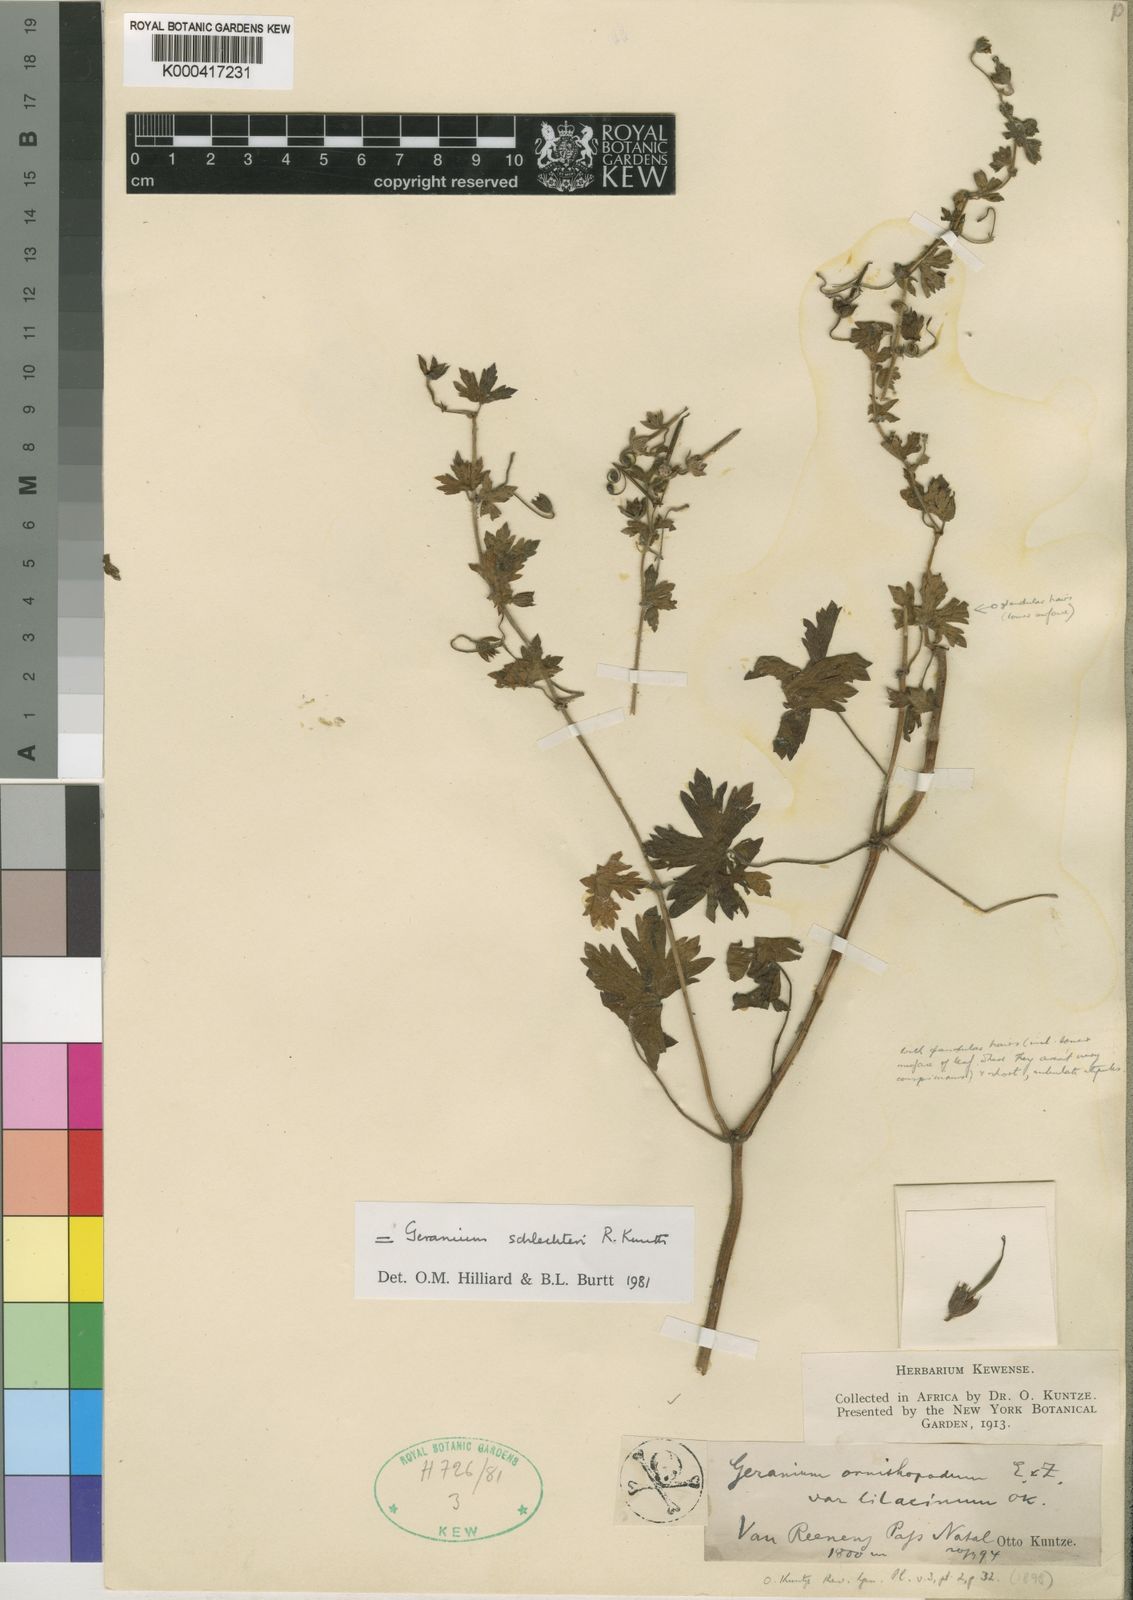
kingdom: Plantae
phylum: Tracheophyta
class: Magnoliopsida
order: Geraniales
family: Geraniaceae
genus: Geranium
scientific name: Geranium schlechteri
